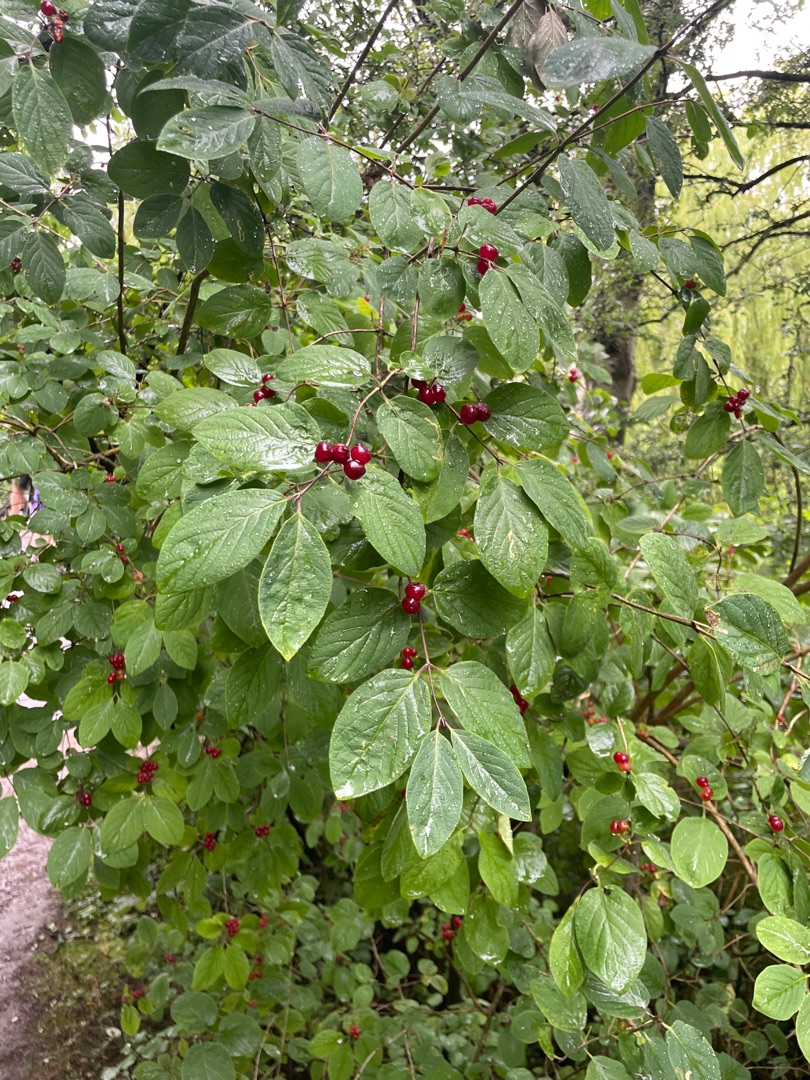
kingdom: Plantae
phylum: Tracheophyta
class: Magnoliopsida
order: Dipsacales
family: Caprifoliaceae
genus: Lonicera
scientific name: Lonicera xylosteum
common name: Dunet gedeblad
